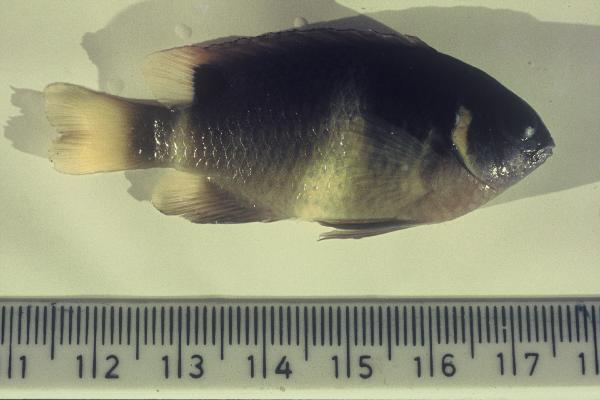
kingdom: Animalia
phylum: Chordata
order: Perciformes
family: Pomacentridae
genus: Plectroglyphidodon
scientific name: Plectroglyphidodon
